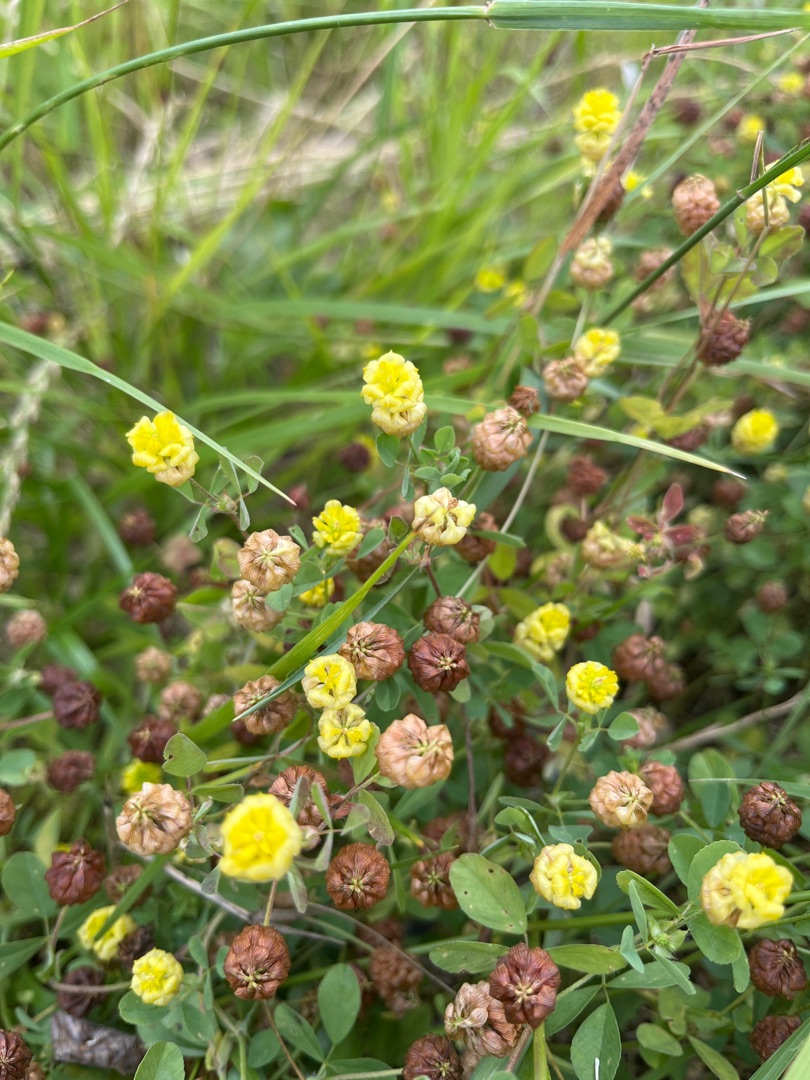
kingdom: Plantae
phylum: Tracheophyta
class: Magnoliopsida
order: Fabales
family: Fabaceae
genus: Trifolium
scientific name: Trifolium campestre
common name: Gul kløver
